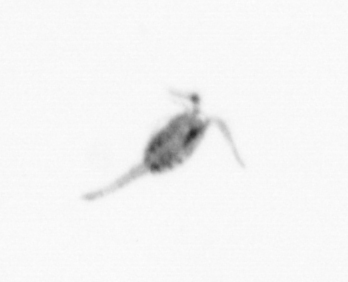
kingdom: Animalia
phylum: Arthropoda
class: Copepoda
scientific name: Copepoda
